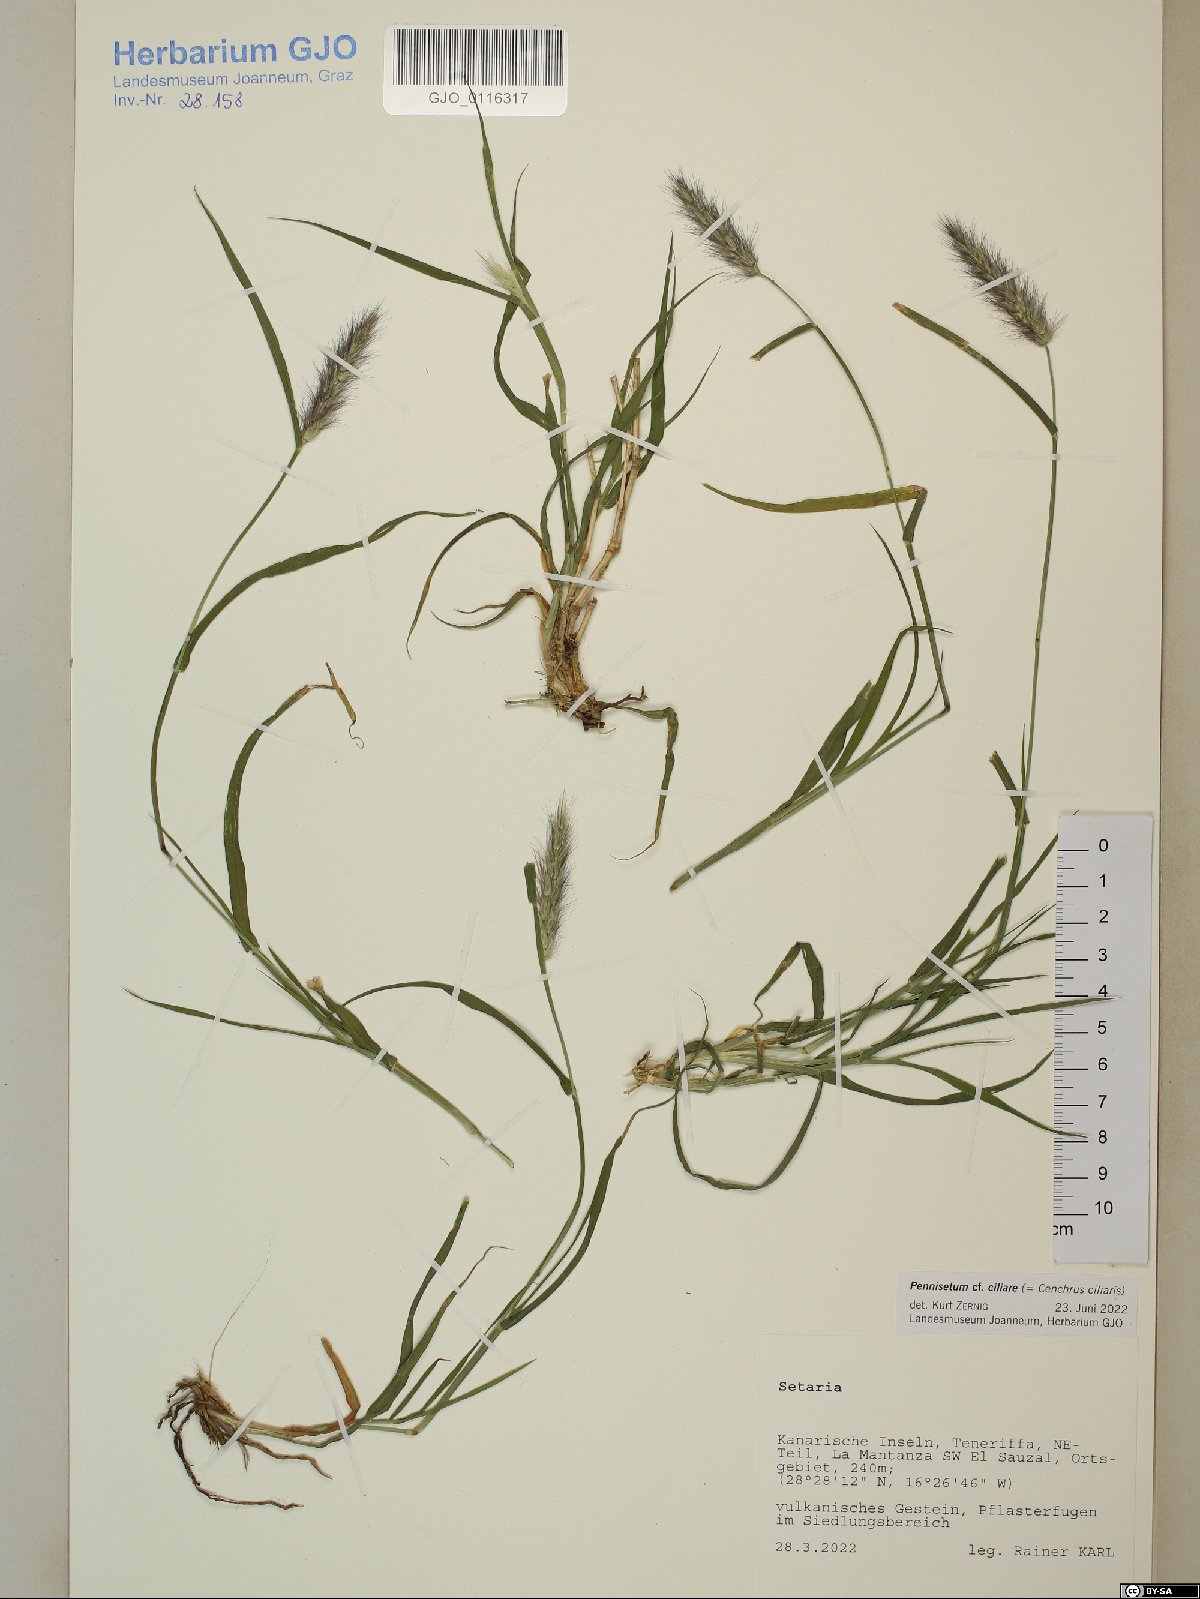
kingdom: Plantae
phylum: Tracheophyta
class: Liliopsida
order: Poales
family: Poaceae
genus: Cenchrus
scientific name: Cenchrus ciliaris
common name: Buffelgrass
